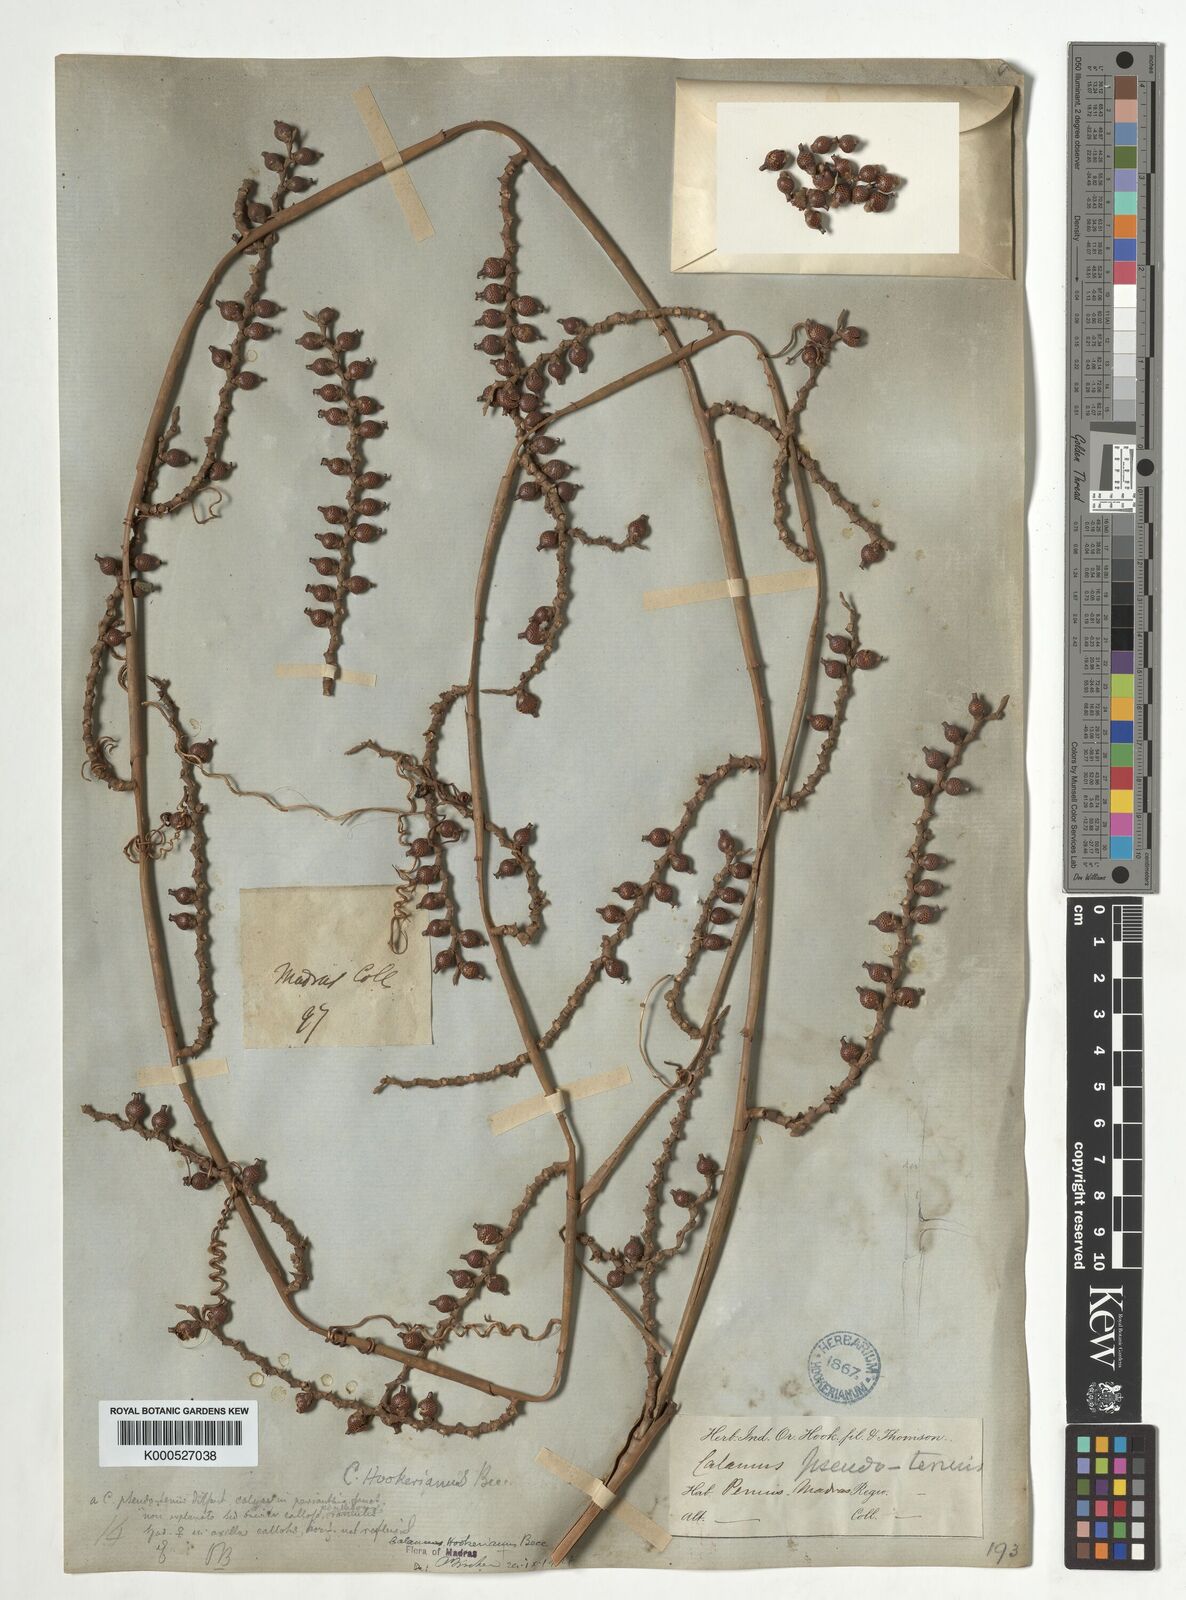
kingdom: Plantae
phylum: Tracheophyta
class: Liliopsida
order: Arecales
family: Arecaceae
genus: Calamus
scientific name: Calamus hookerianus
